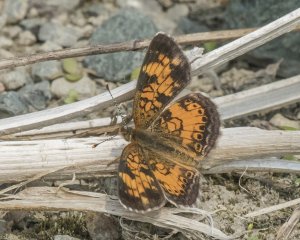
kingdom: Animalia
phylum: Arthropoda
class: Insecta
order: Lepidoptera
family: Nymphalidae
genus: Phyciodes
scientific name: Phyciodes tharos
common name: Northern Crescent
